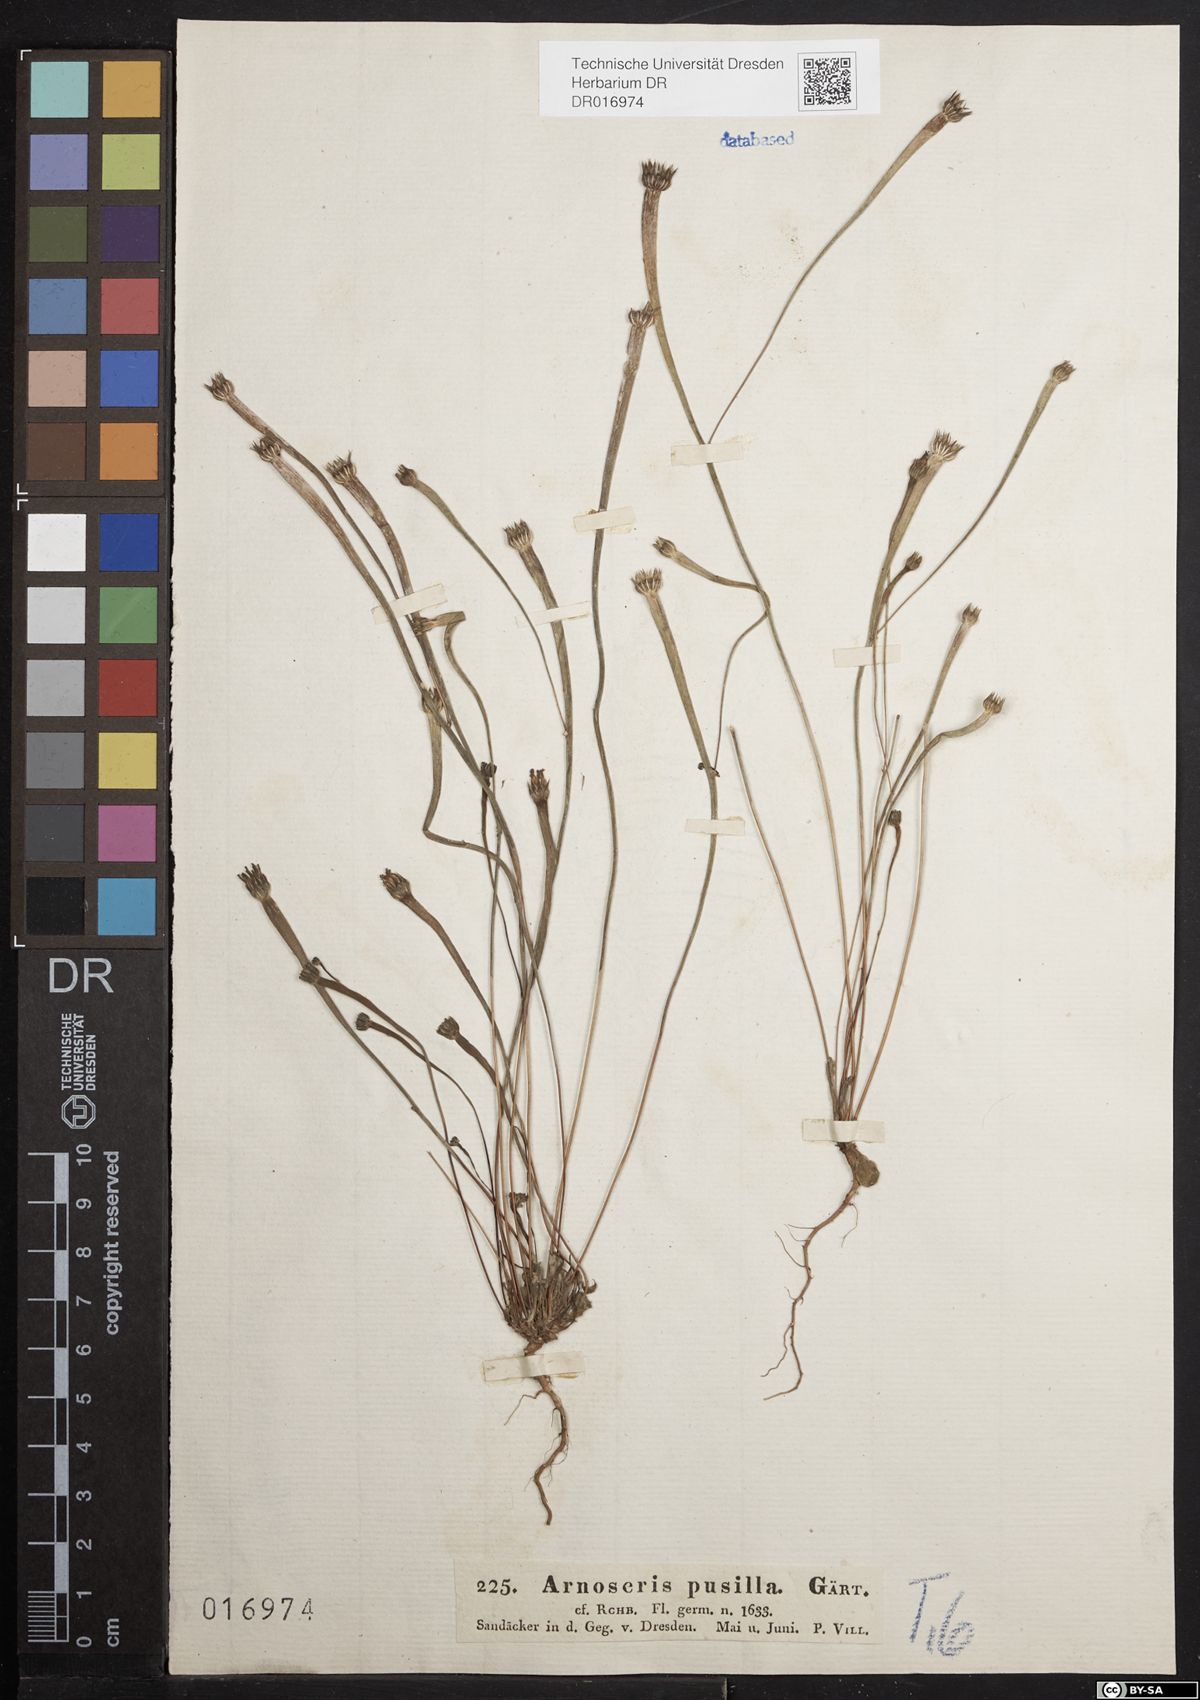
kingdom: Plantae
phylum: Tracheophyta
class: Magnoliopsida
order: Asterales
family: Asteraceae
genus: Arnoseris
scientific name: Arnoseris minima
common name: Lamb's succory
